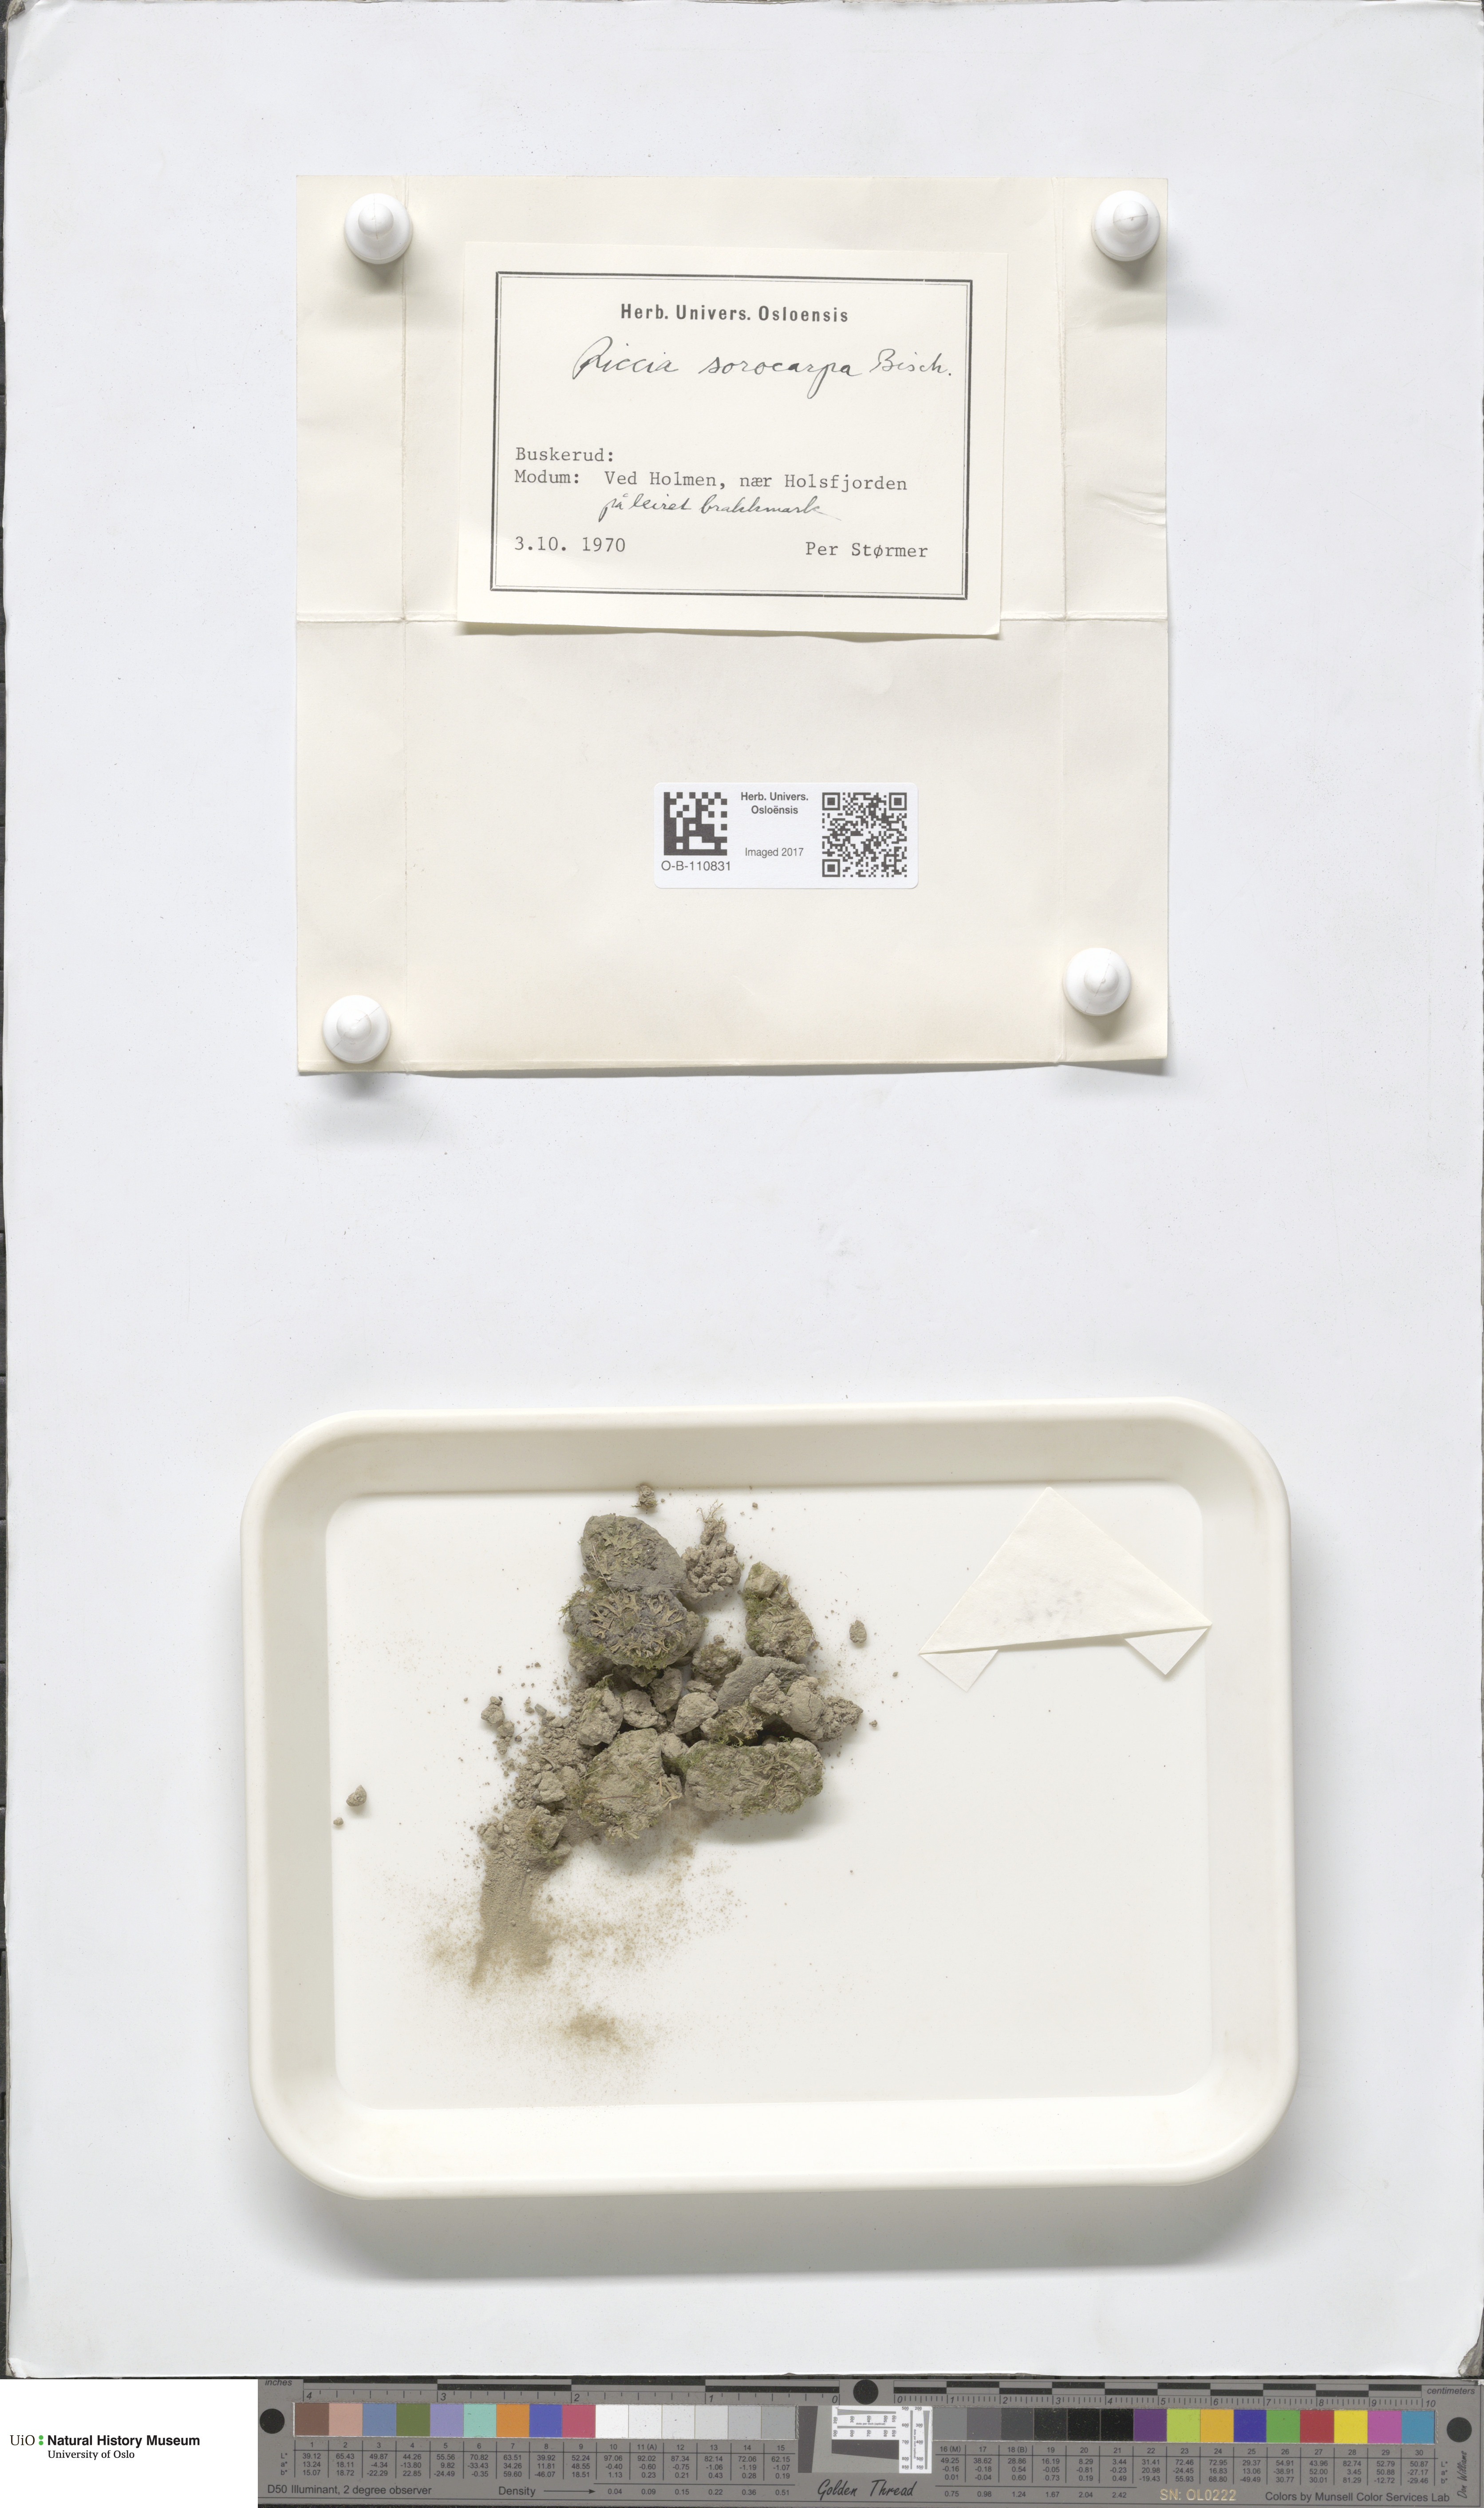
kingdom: Plantae
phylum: Marchantiophyta
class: Marchantiopsida
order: Marchantiales
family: Ricciaceae
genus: Riccia
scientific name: Riccia sorocarpa
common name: Common crystalwort
